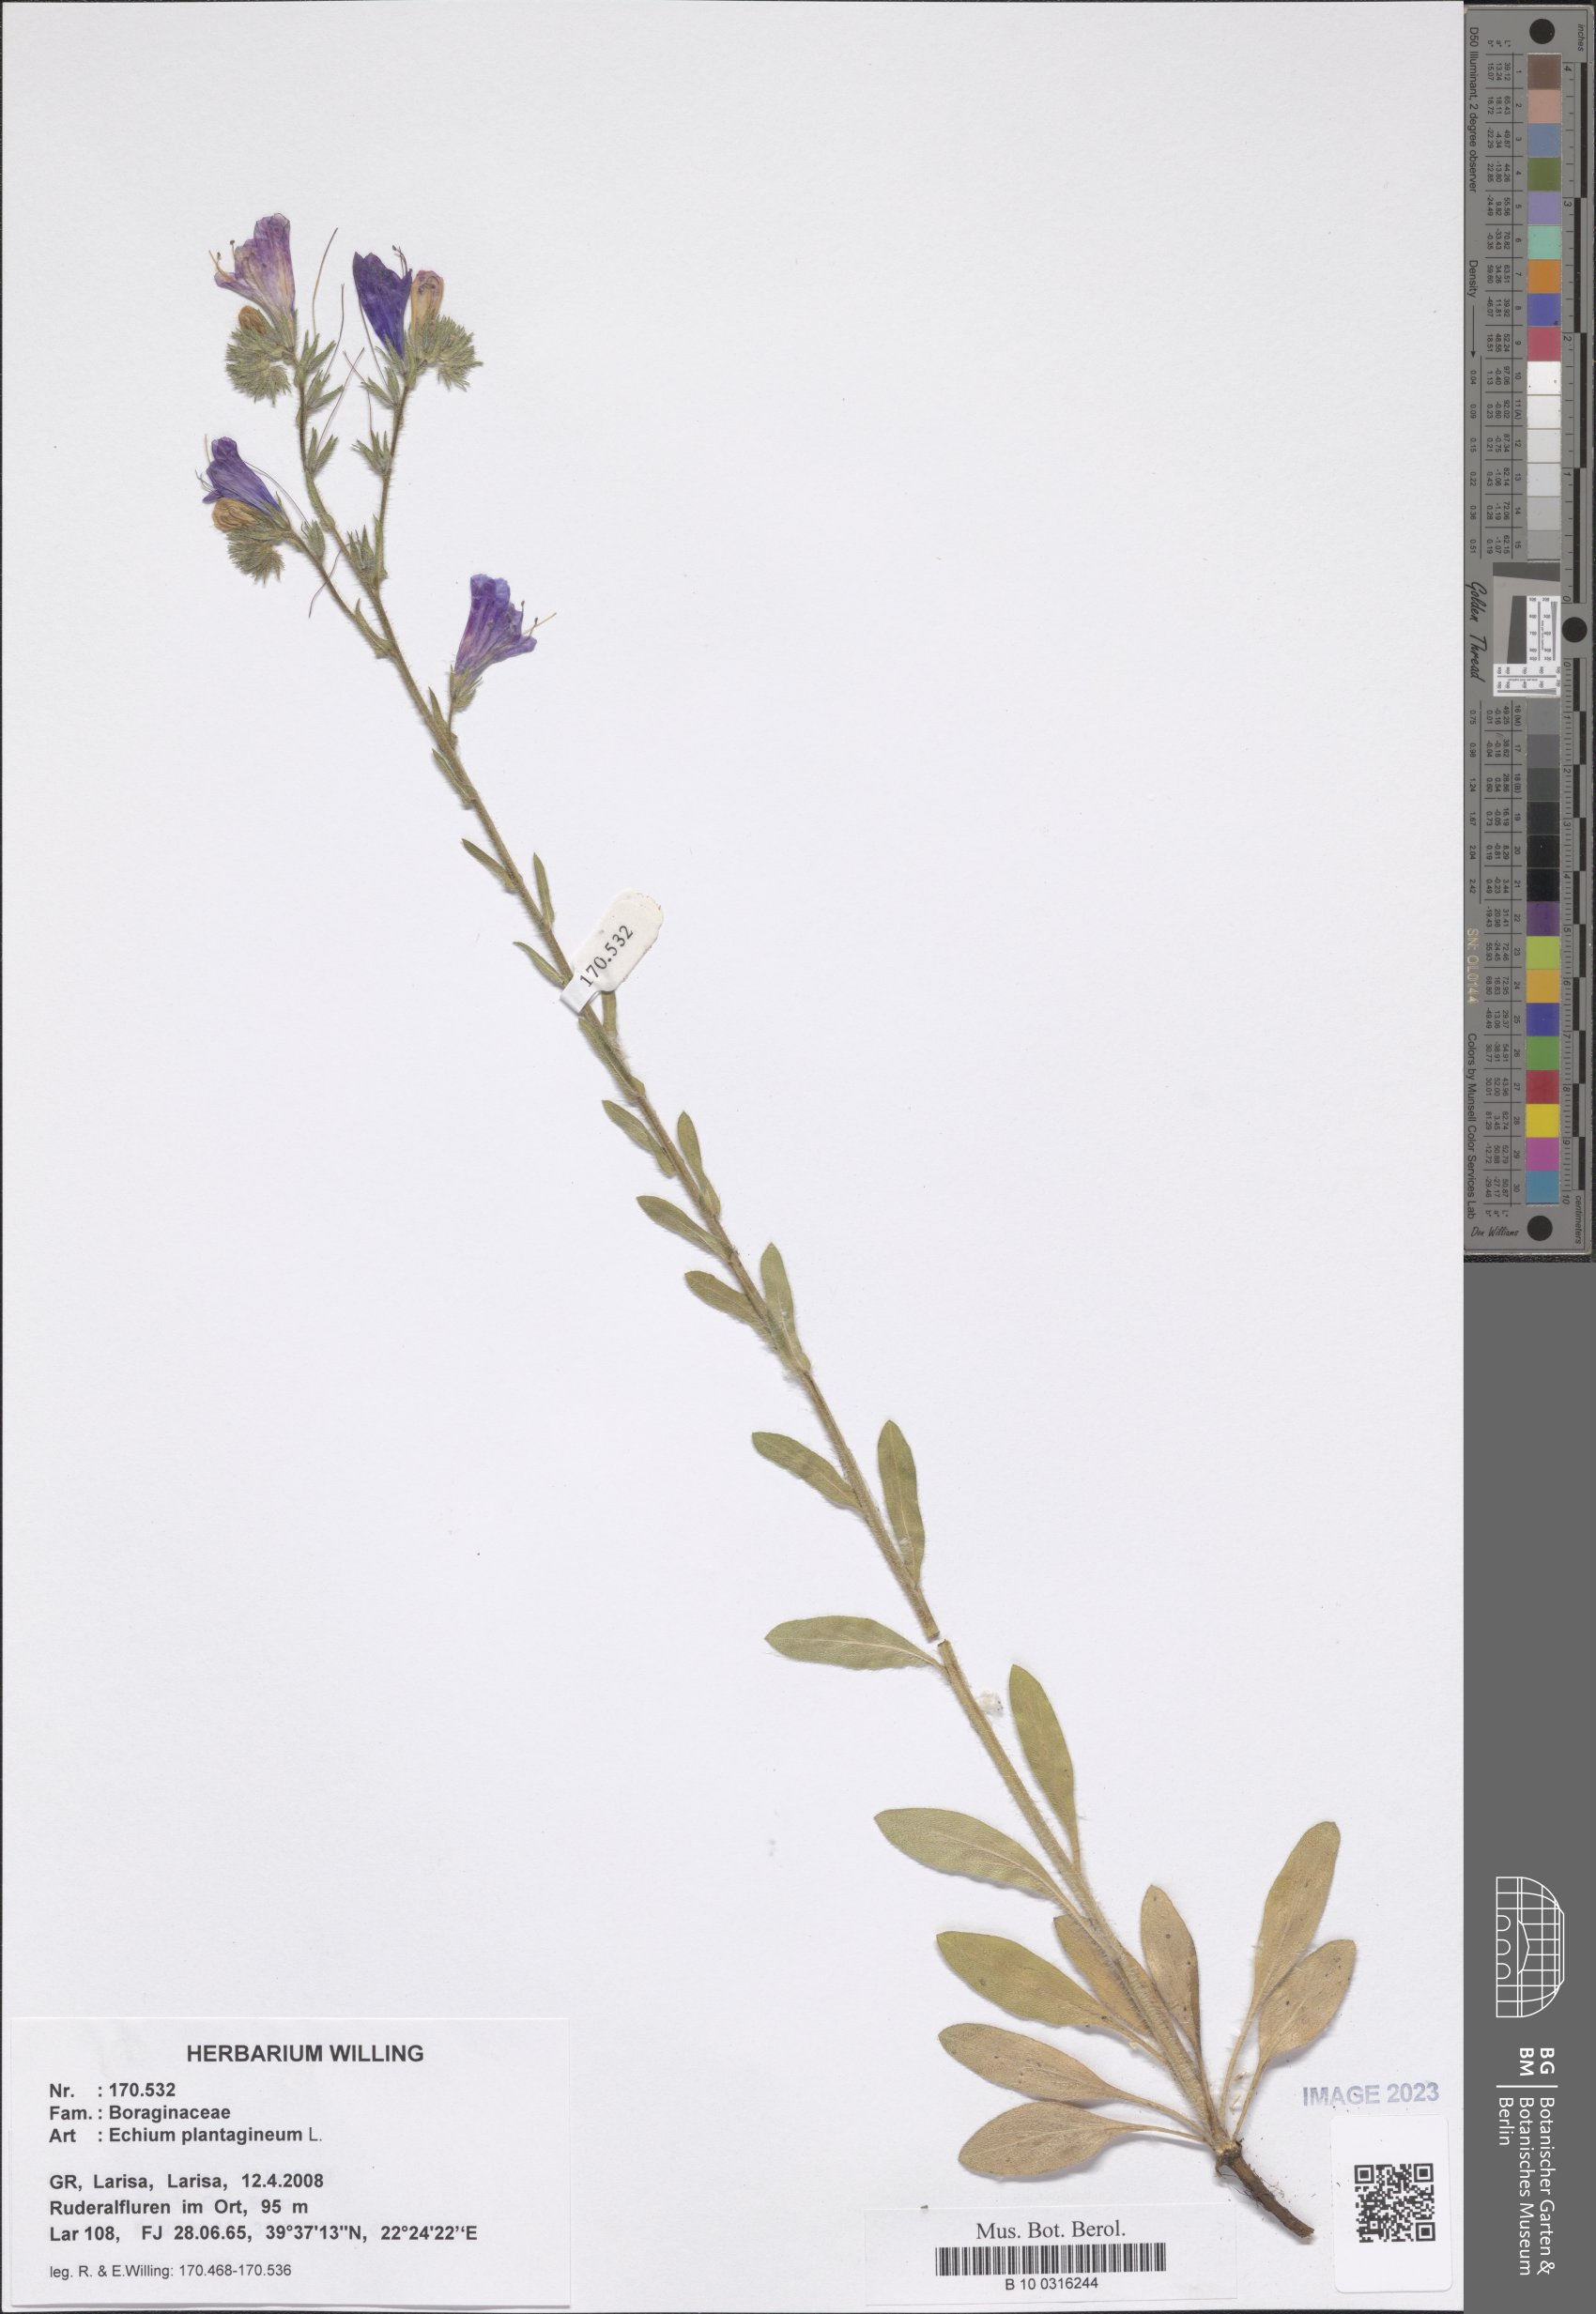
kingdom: Plantae
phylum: Tracheophyta
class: Magnoliopsida
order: Boraginales
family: Boraginaceae
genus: Echium
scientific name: Echium plantagineum
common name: Purple viper's-bugloss
